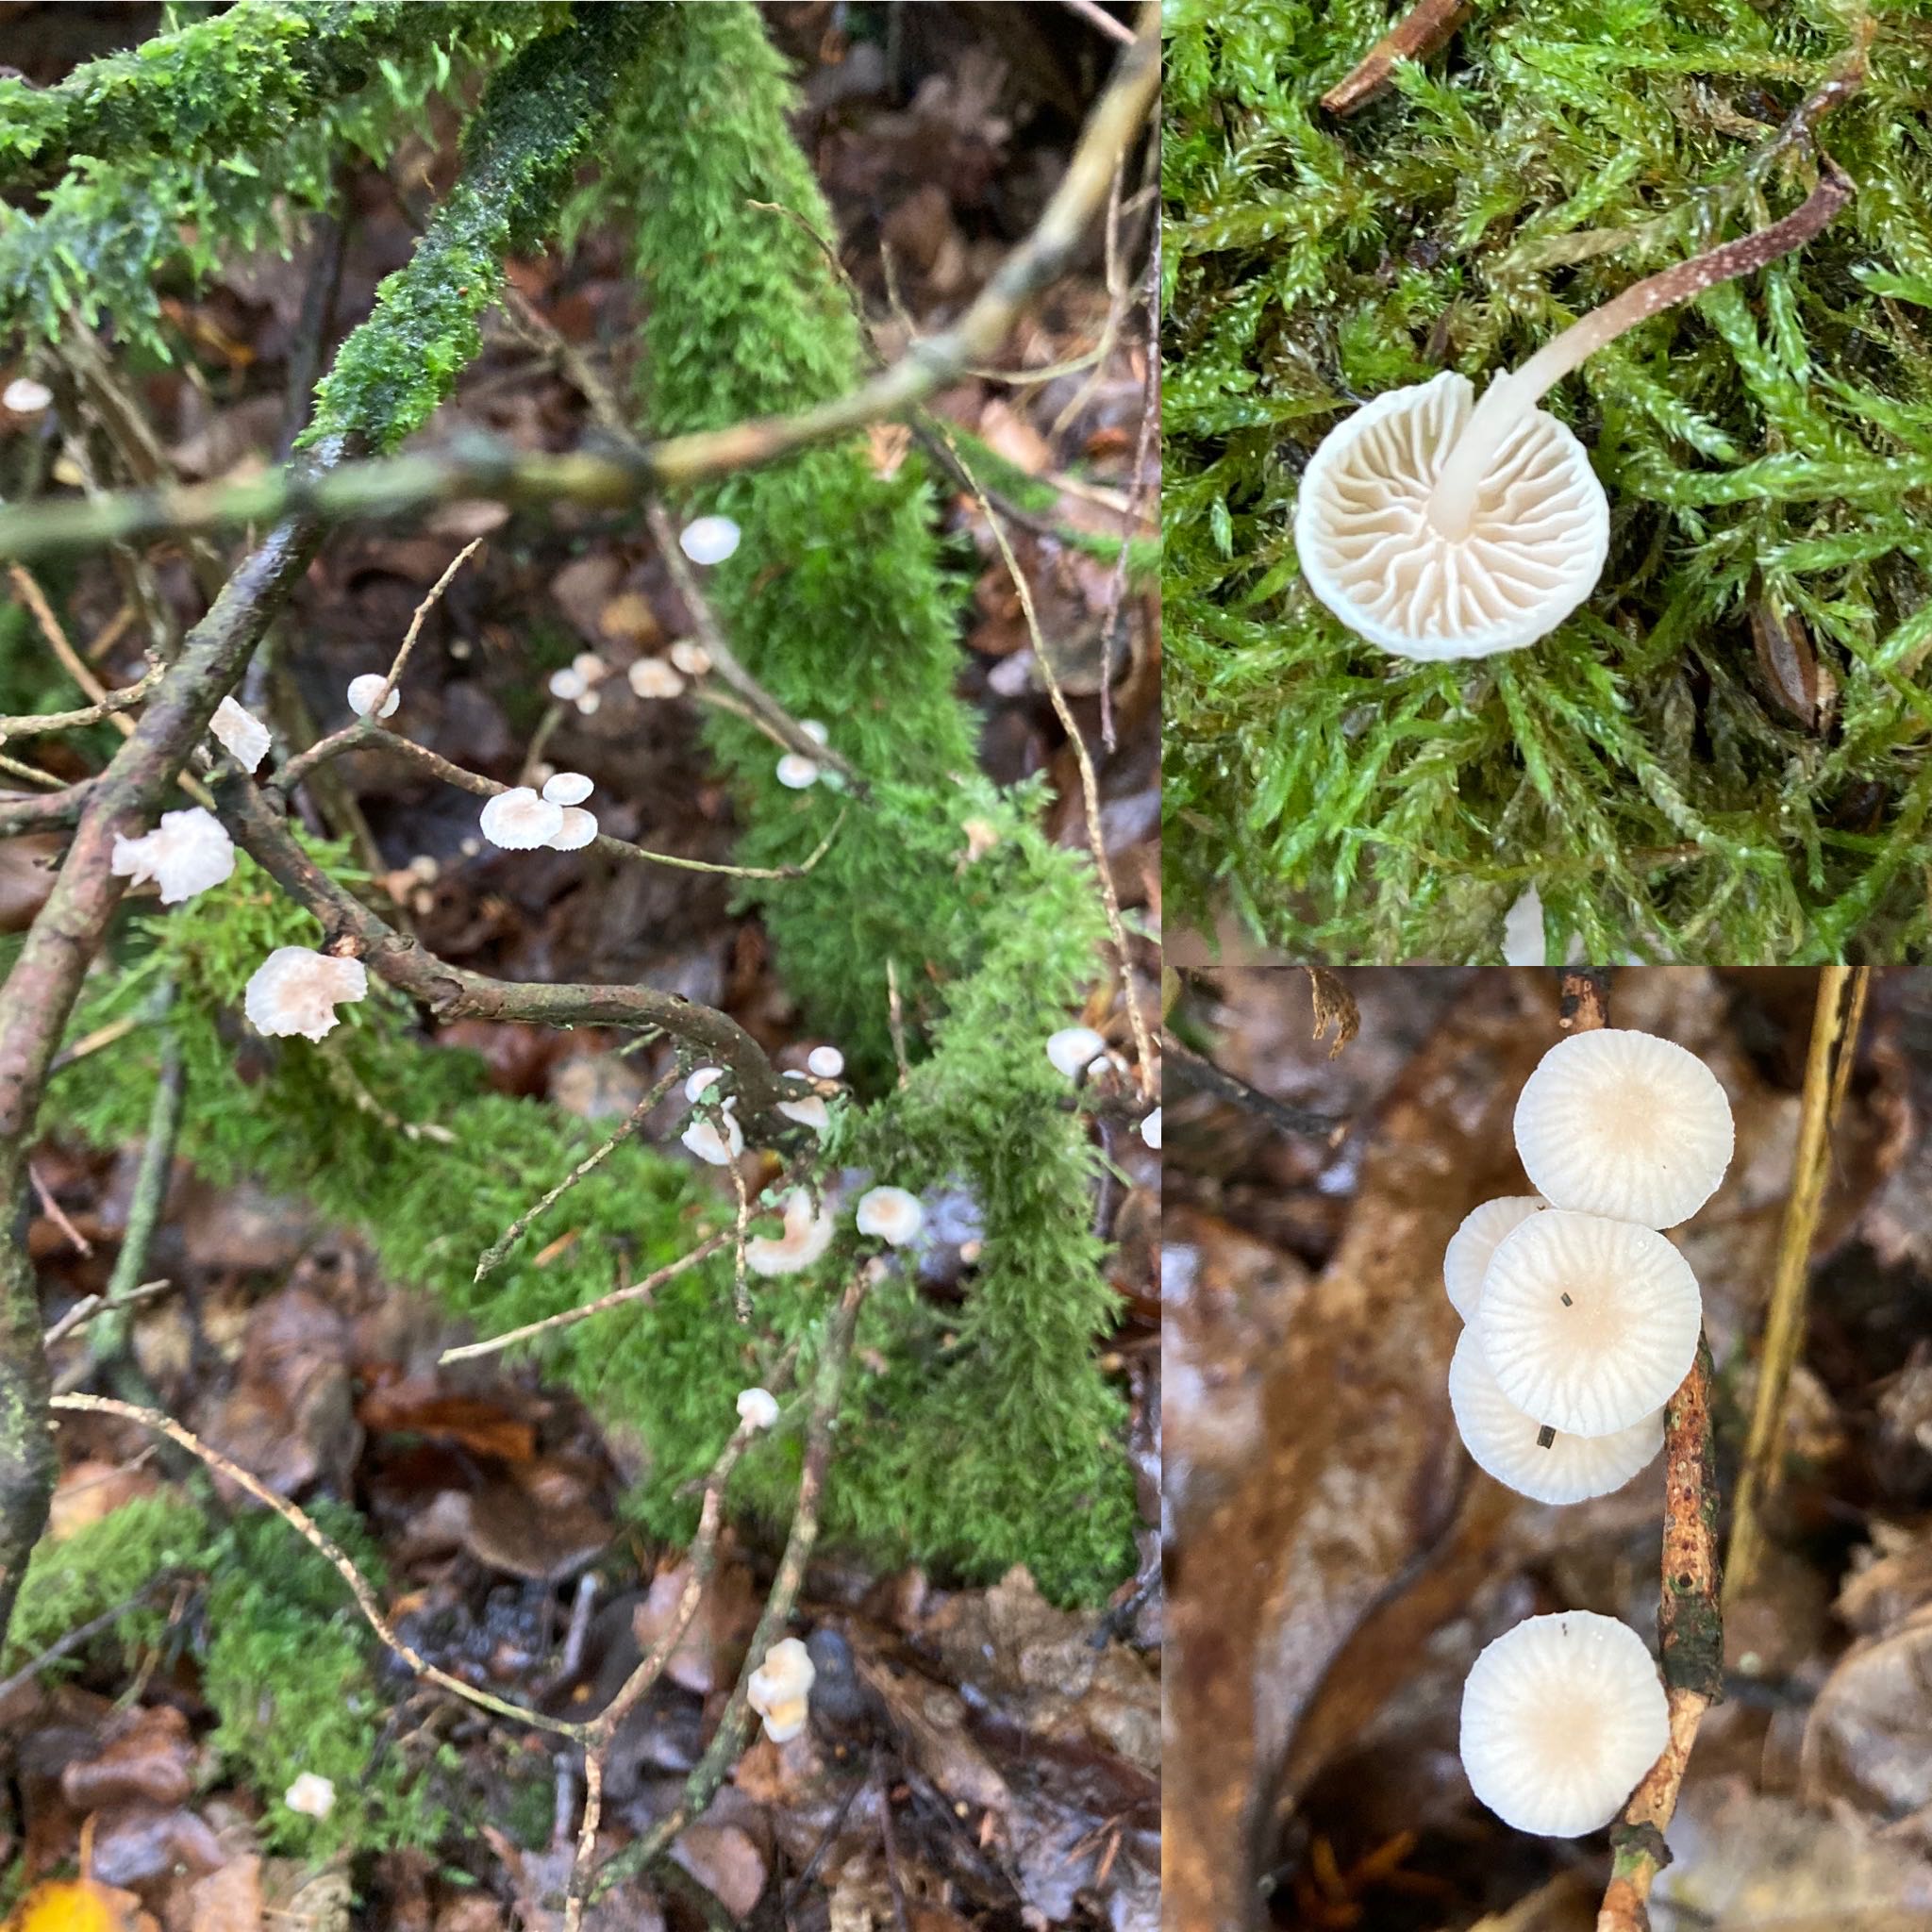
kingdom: Fungi
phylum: Basidiomycota
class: Agaricomycetes
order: Agaricales
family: Omphalotaceae
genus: Collybiopsis
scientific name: Collybiopsis ramealis
